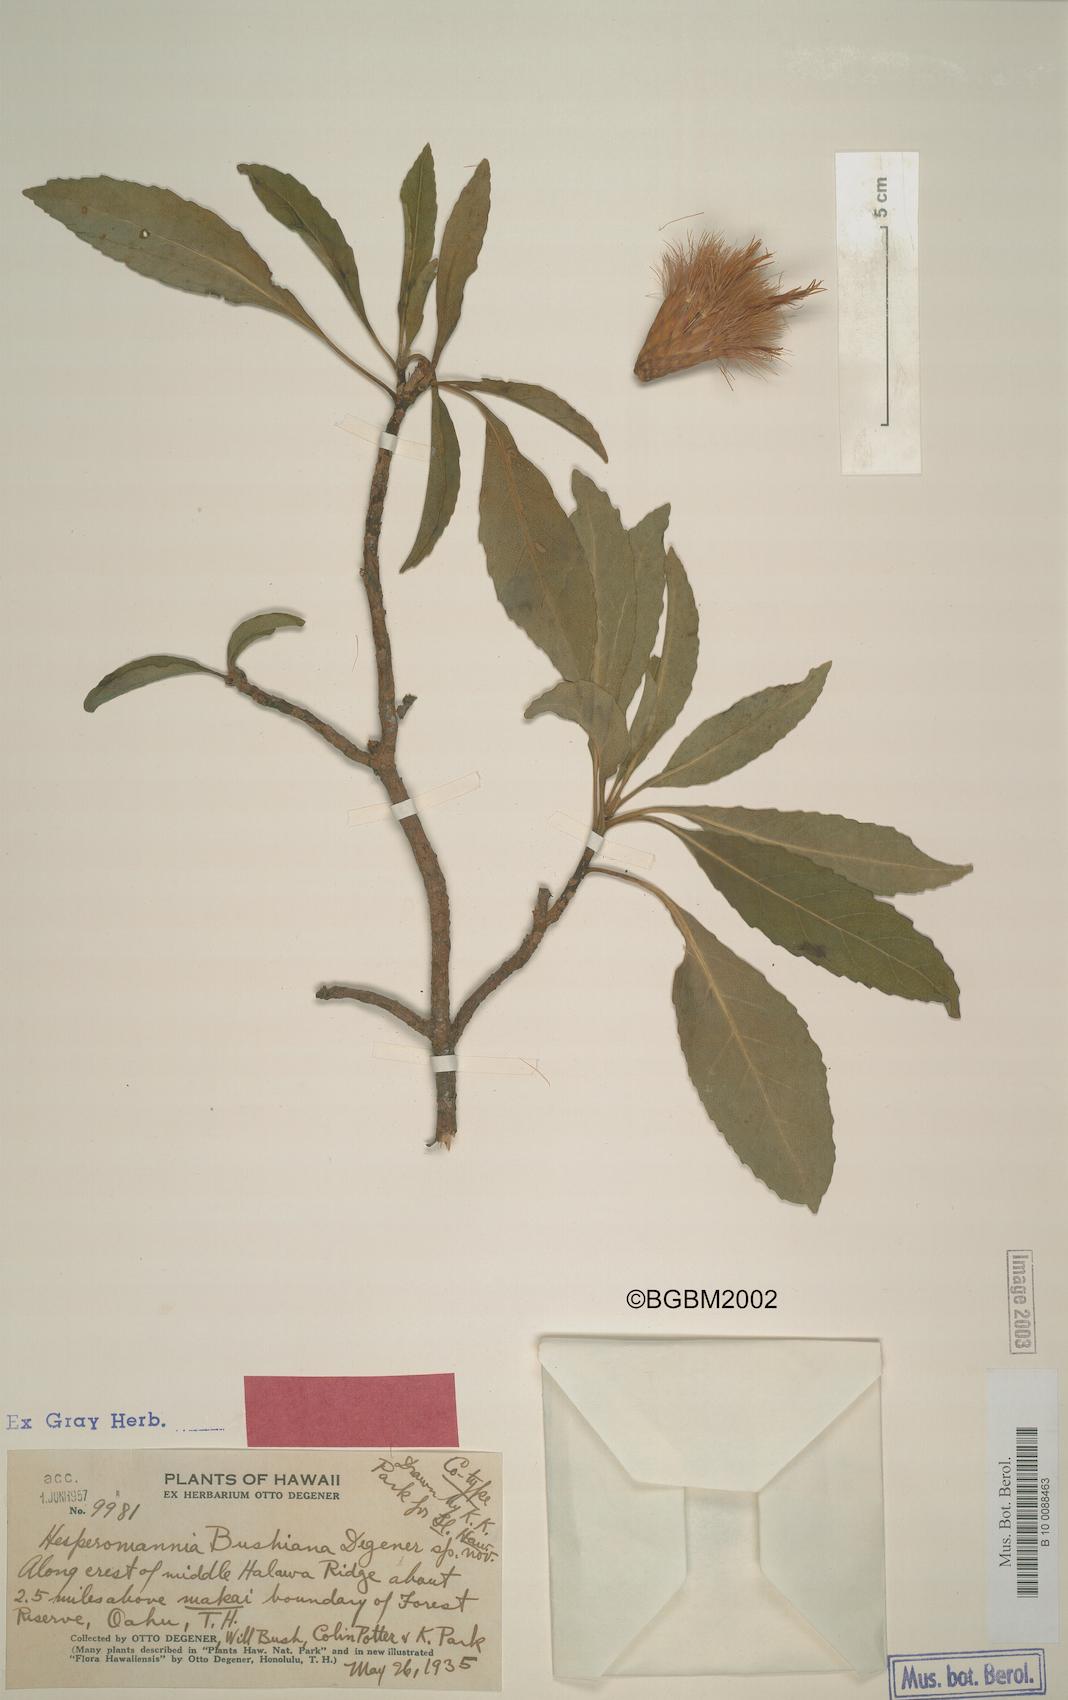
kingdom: Plantae
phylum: Tracheophyta
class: Magnoliopsida
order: Asterales
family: Asteraceae
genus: Hesperomannia
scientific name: Hesperomannia arborescens
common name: Lanai hesperomannia
